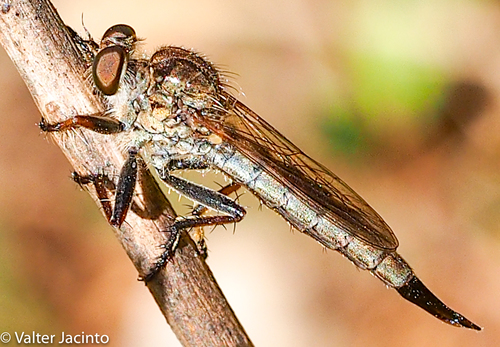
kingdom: Animalia
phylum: Arthropoda
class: Insecta
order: Diptera
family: Asilidae
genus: Machimus
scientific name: Machimus dasypygus
